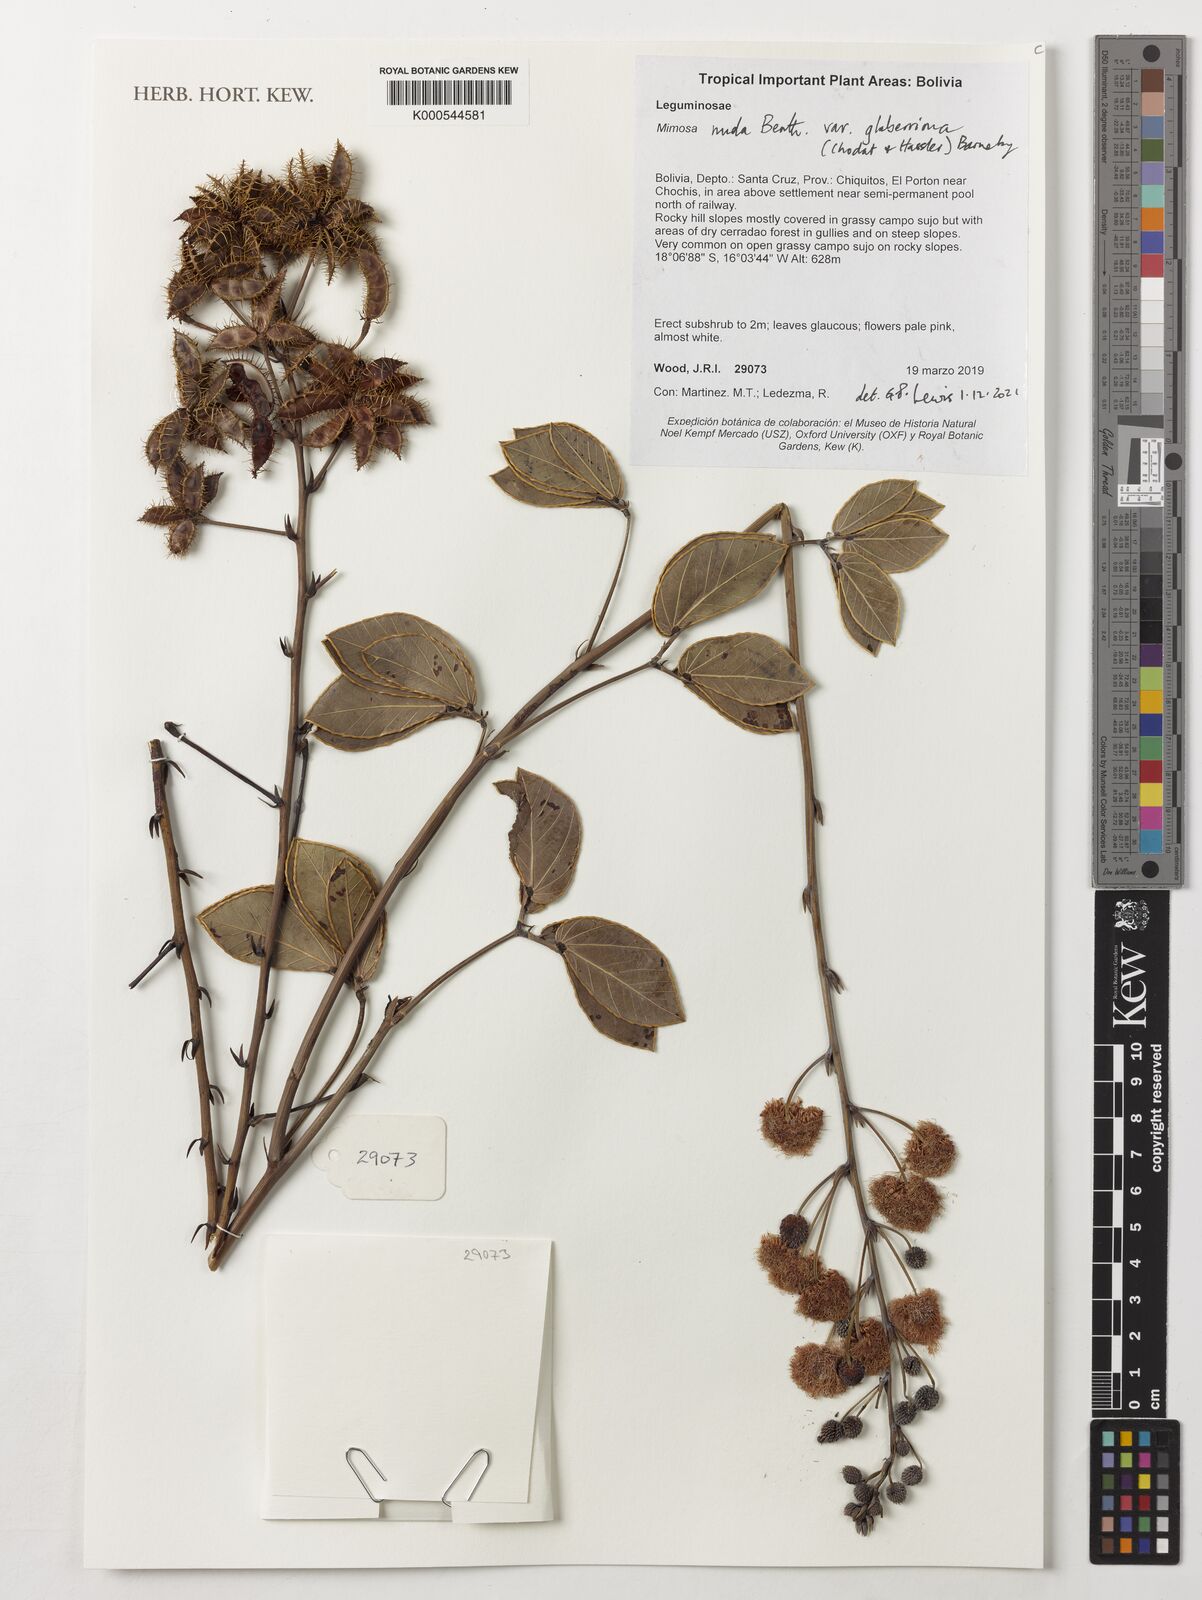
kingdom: Plantae
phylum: Tracheophyta
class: Magnoliopsida
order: Fabales
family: Fabaceae
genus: Mimosa
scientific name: Mimosa debilis
